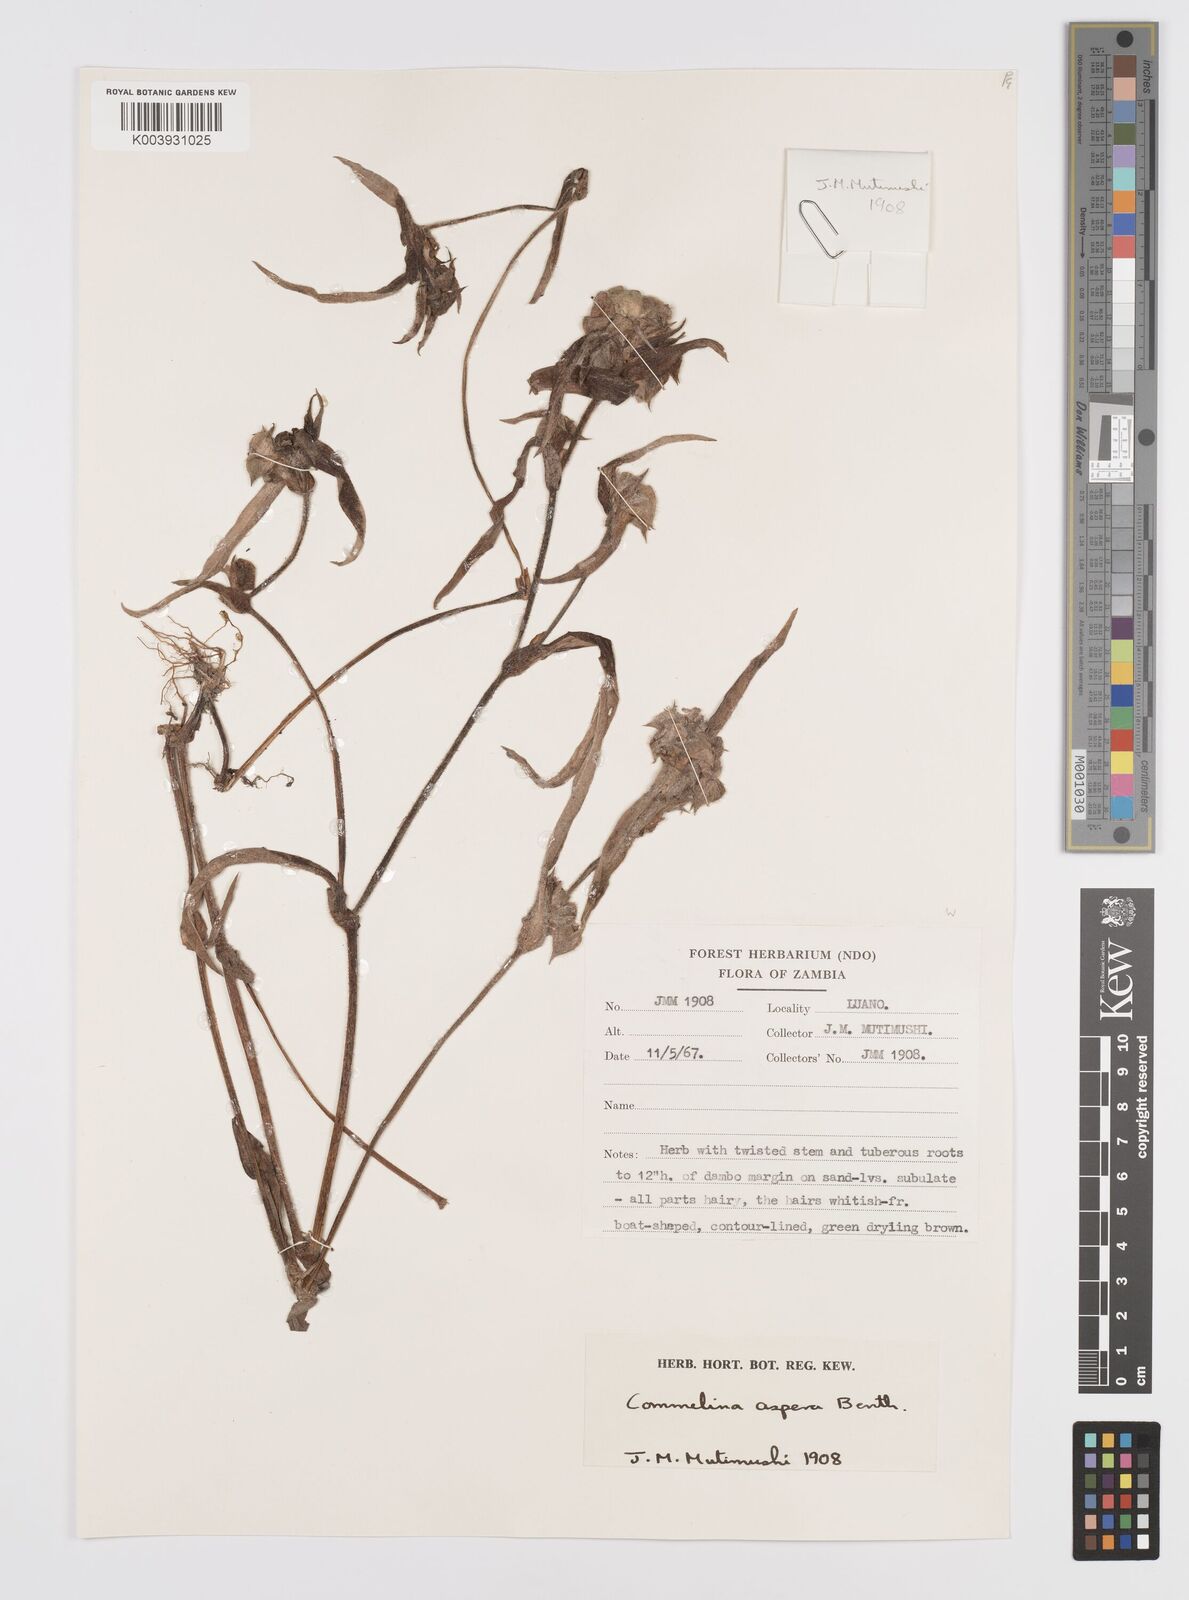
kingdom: Plantae
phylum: Tracheophyta
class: Liliopsida
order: Commelinales
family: Commelinaceae
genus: Commelina
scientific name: Commelina aspera
